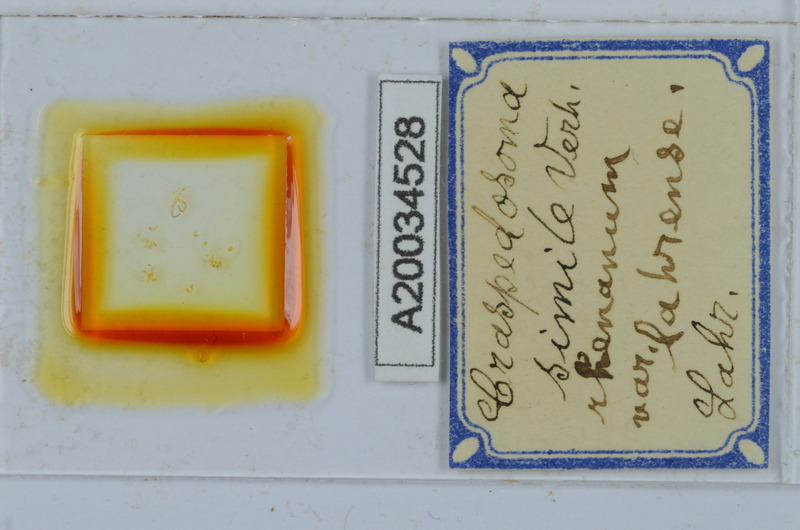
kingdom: Animalia
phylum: Arthropoda
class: Diplopoda
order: Chordeumatida
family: Craspedosomatidae
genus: Craspedosoma
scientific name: Craspedosoma simile
